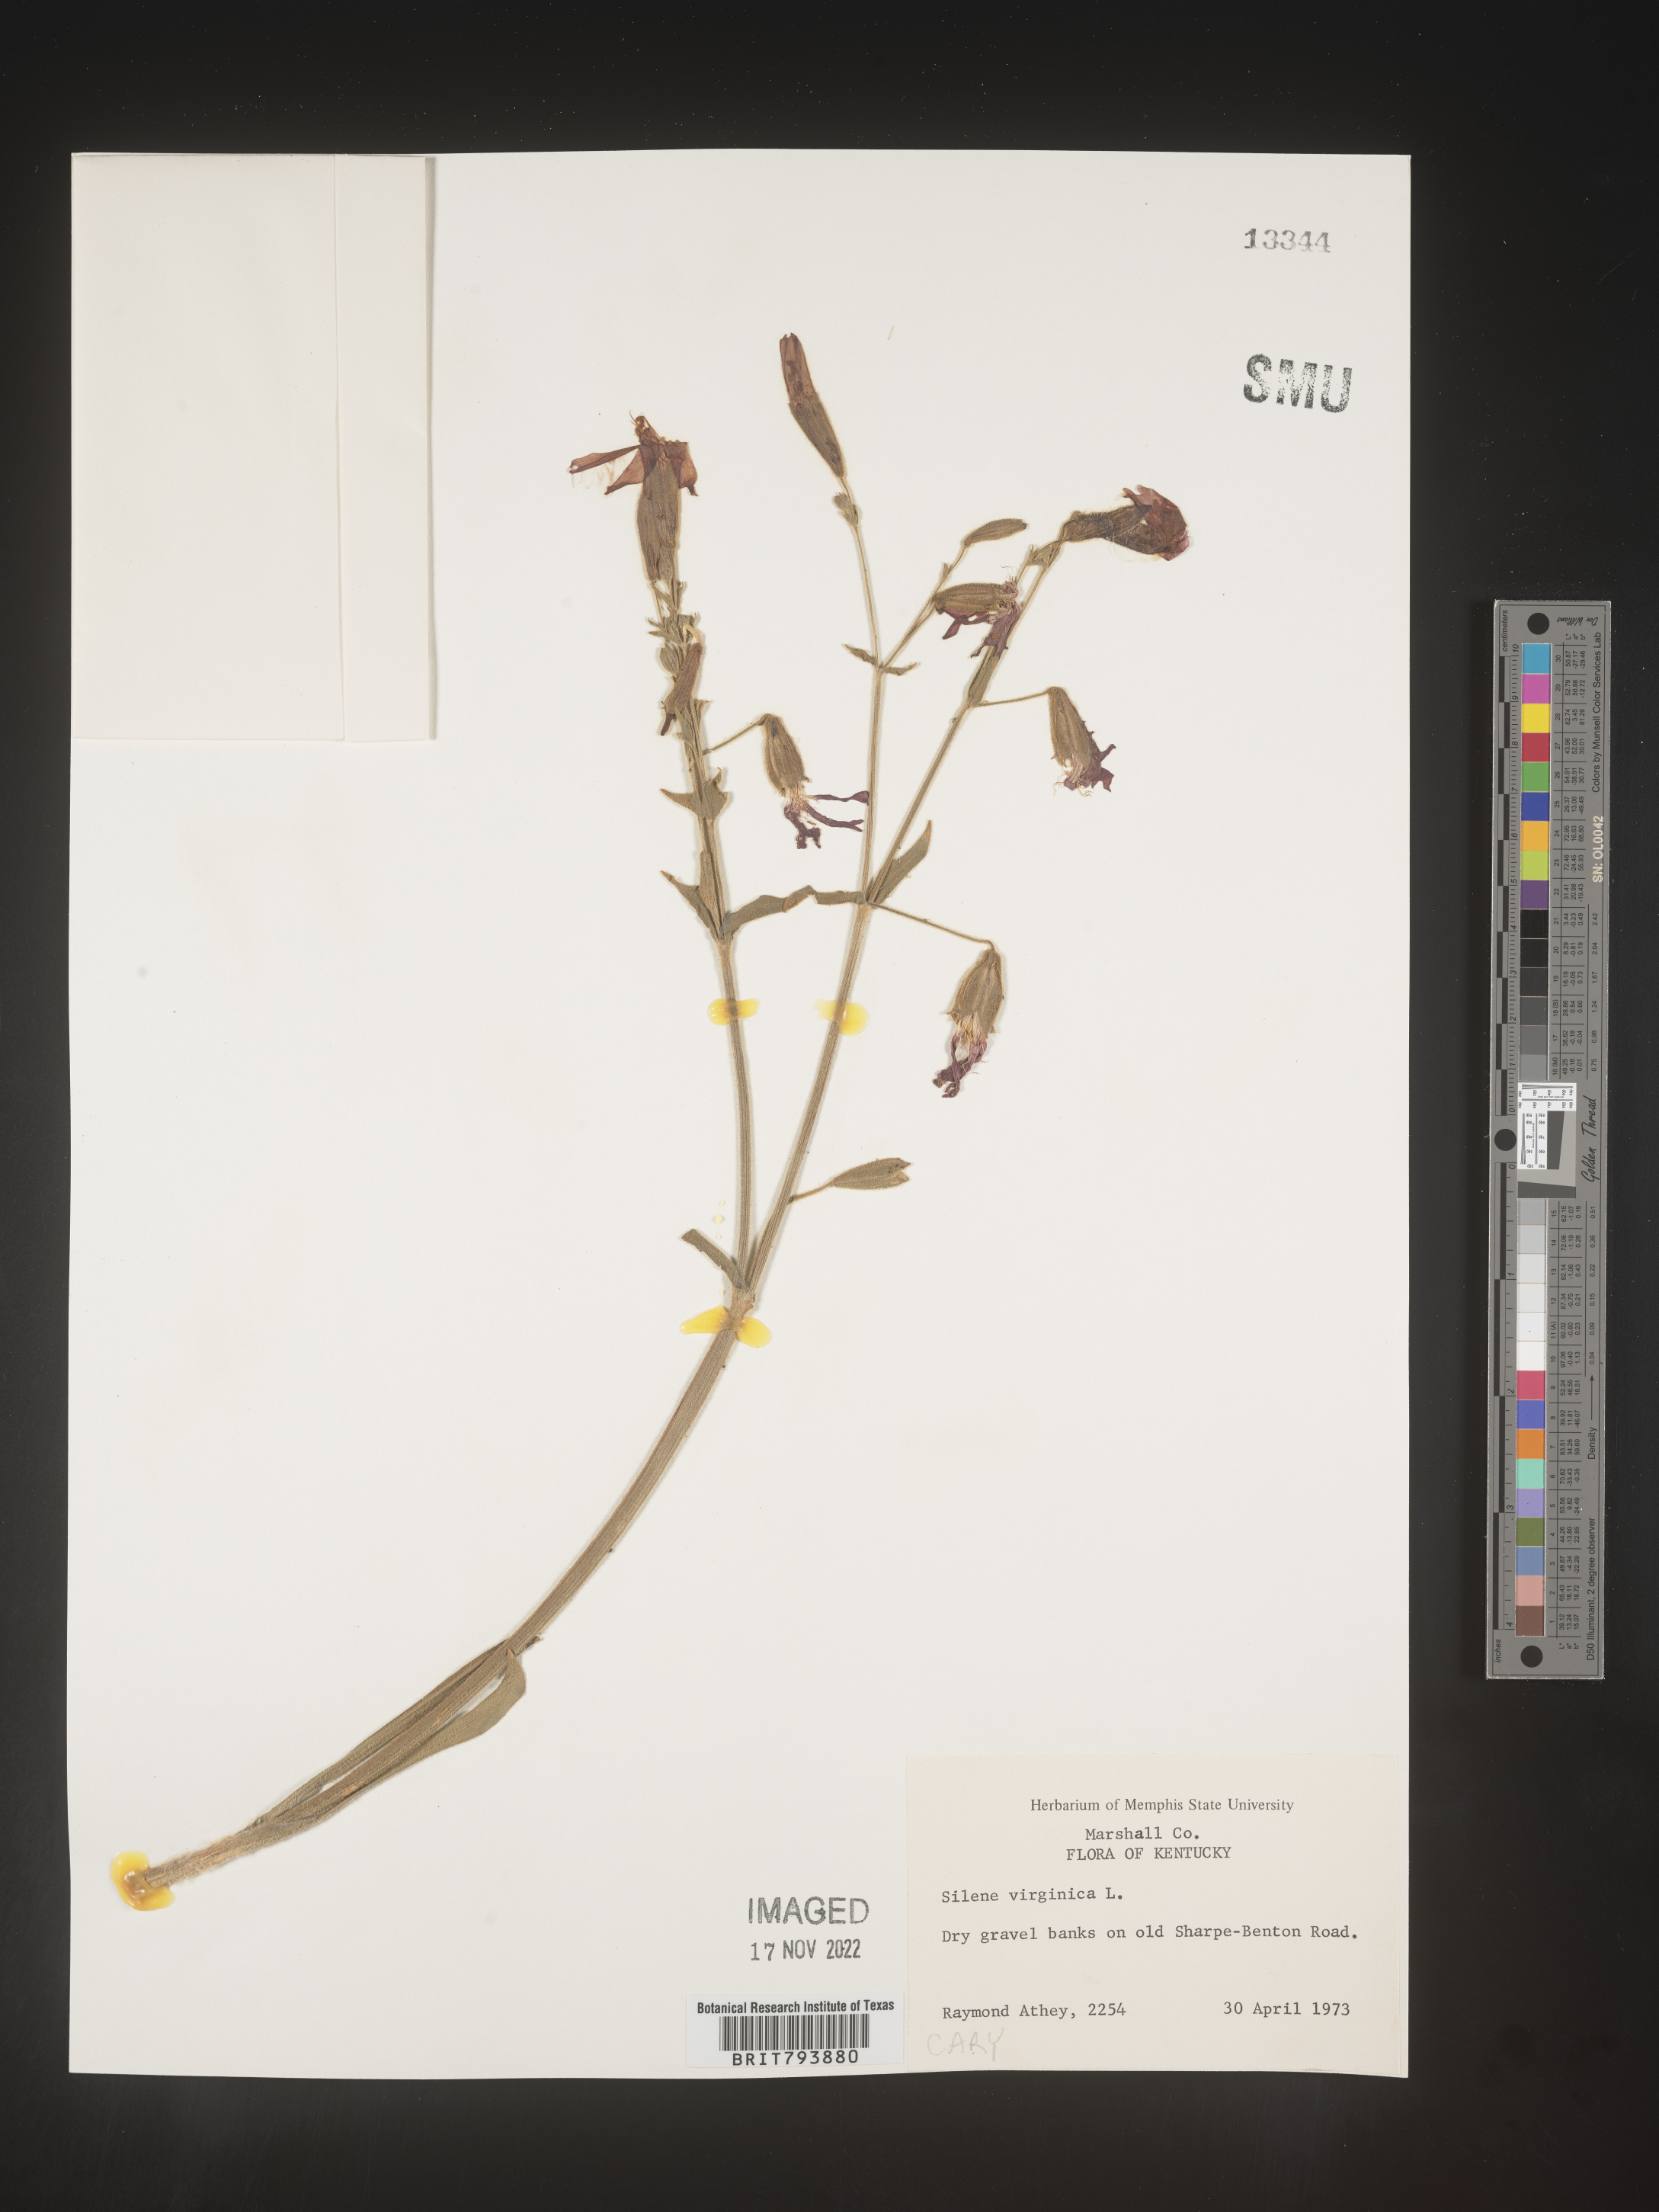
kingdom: Plantae
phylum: Tracheophyta
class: Magnoliopsida
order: Caryophyllales
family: Caryophyllaceae
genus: Silene
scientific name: Silene virginica
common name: Fire-pink
